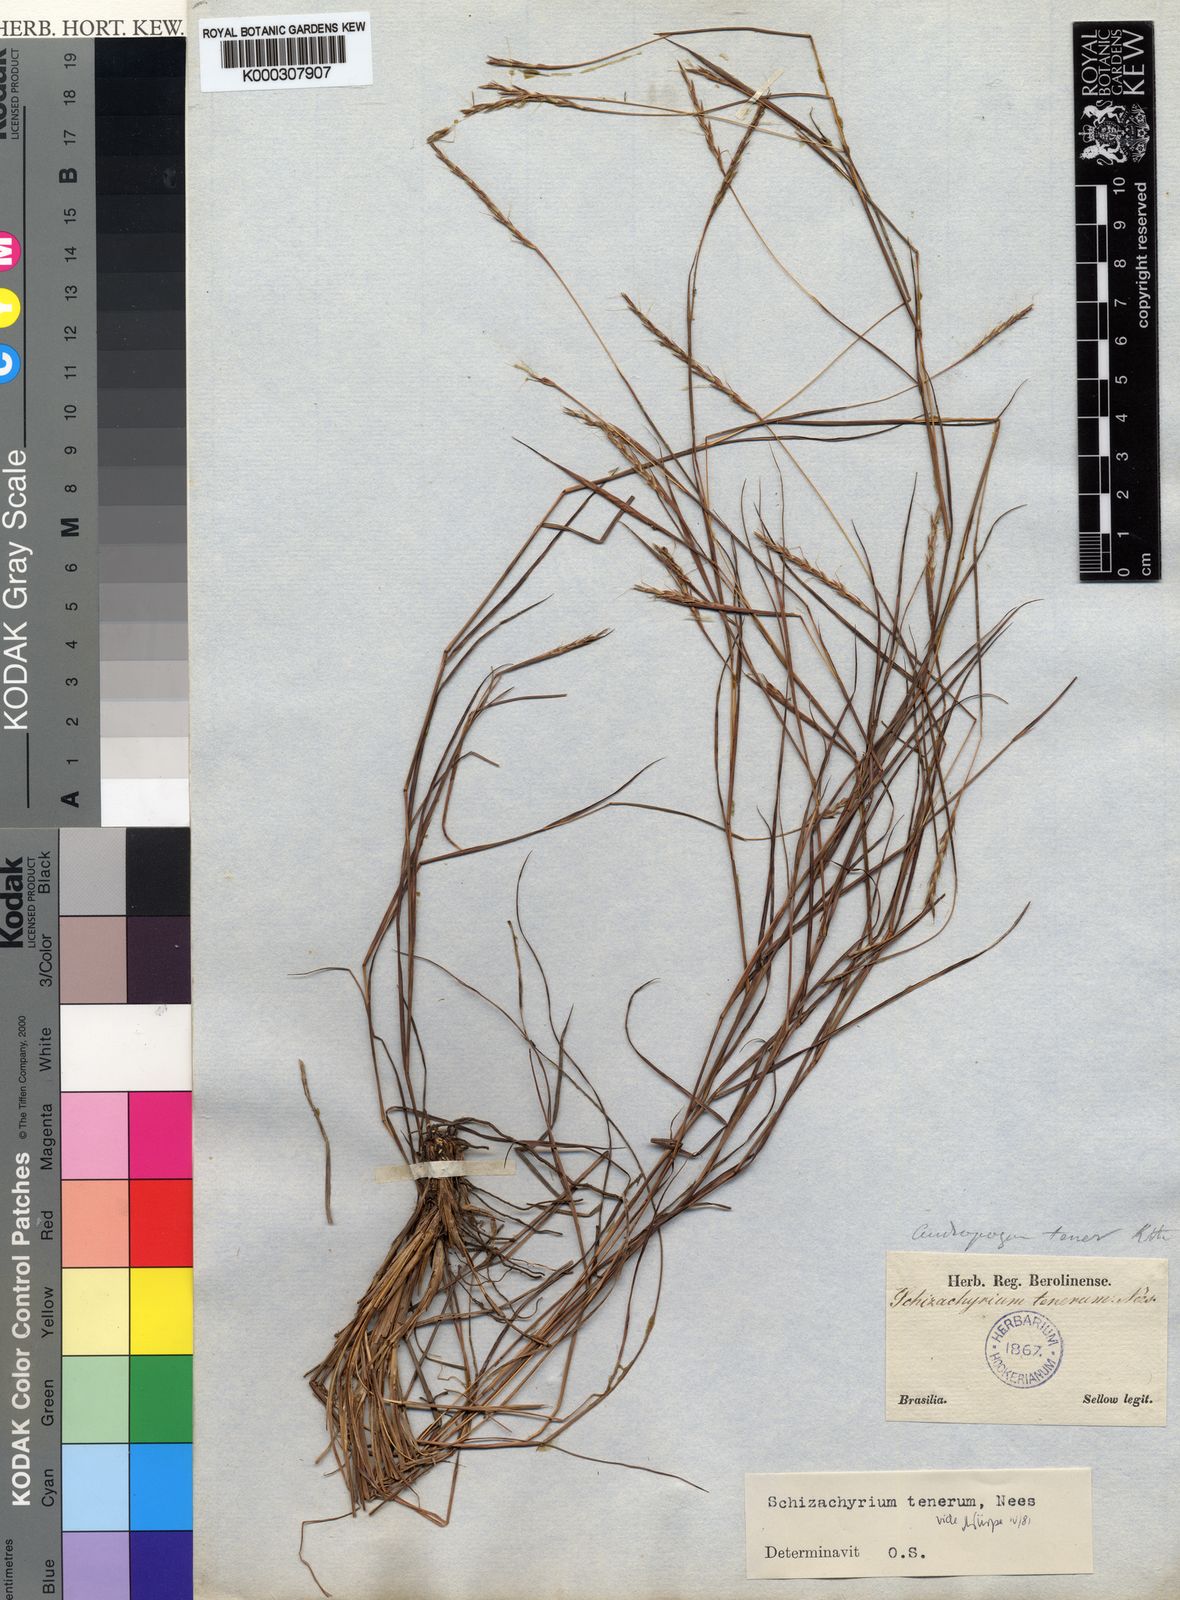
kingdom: Plantae
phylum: Tracheophyta
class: Liliopsida
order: Poales
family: Poaceae
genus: Andropogon
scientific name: Andropogon tener
